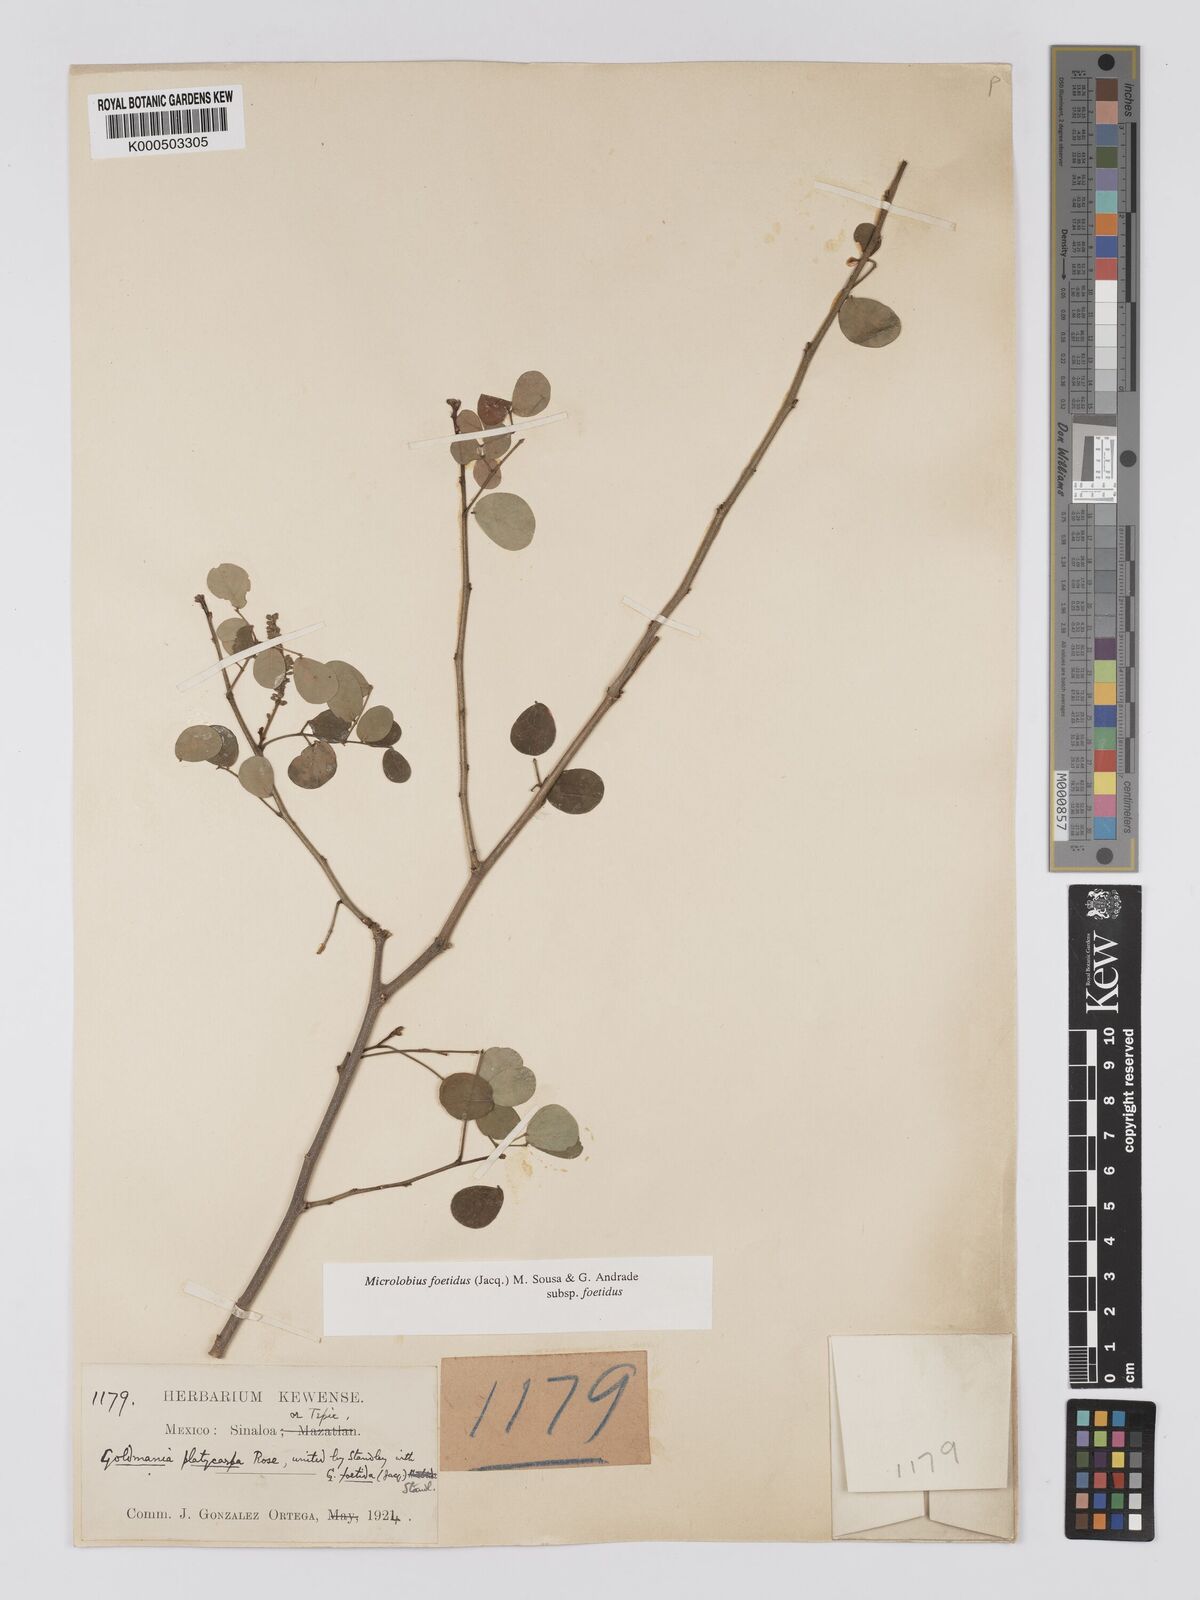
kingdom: Plantae
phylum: Tracheophyta
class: Magnoliopsida
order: Fabales
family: Fabaceae
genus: Microlobius
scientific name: Microlobius foetidus
